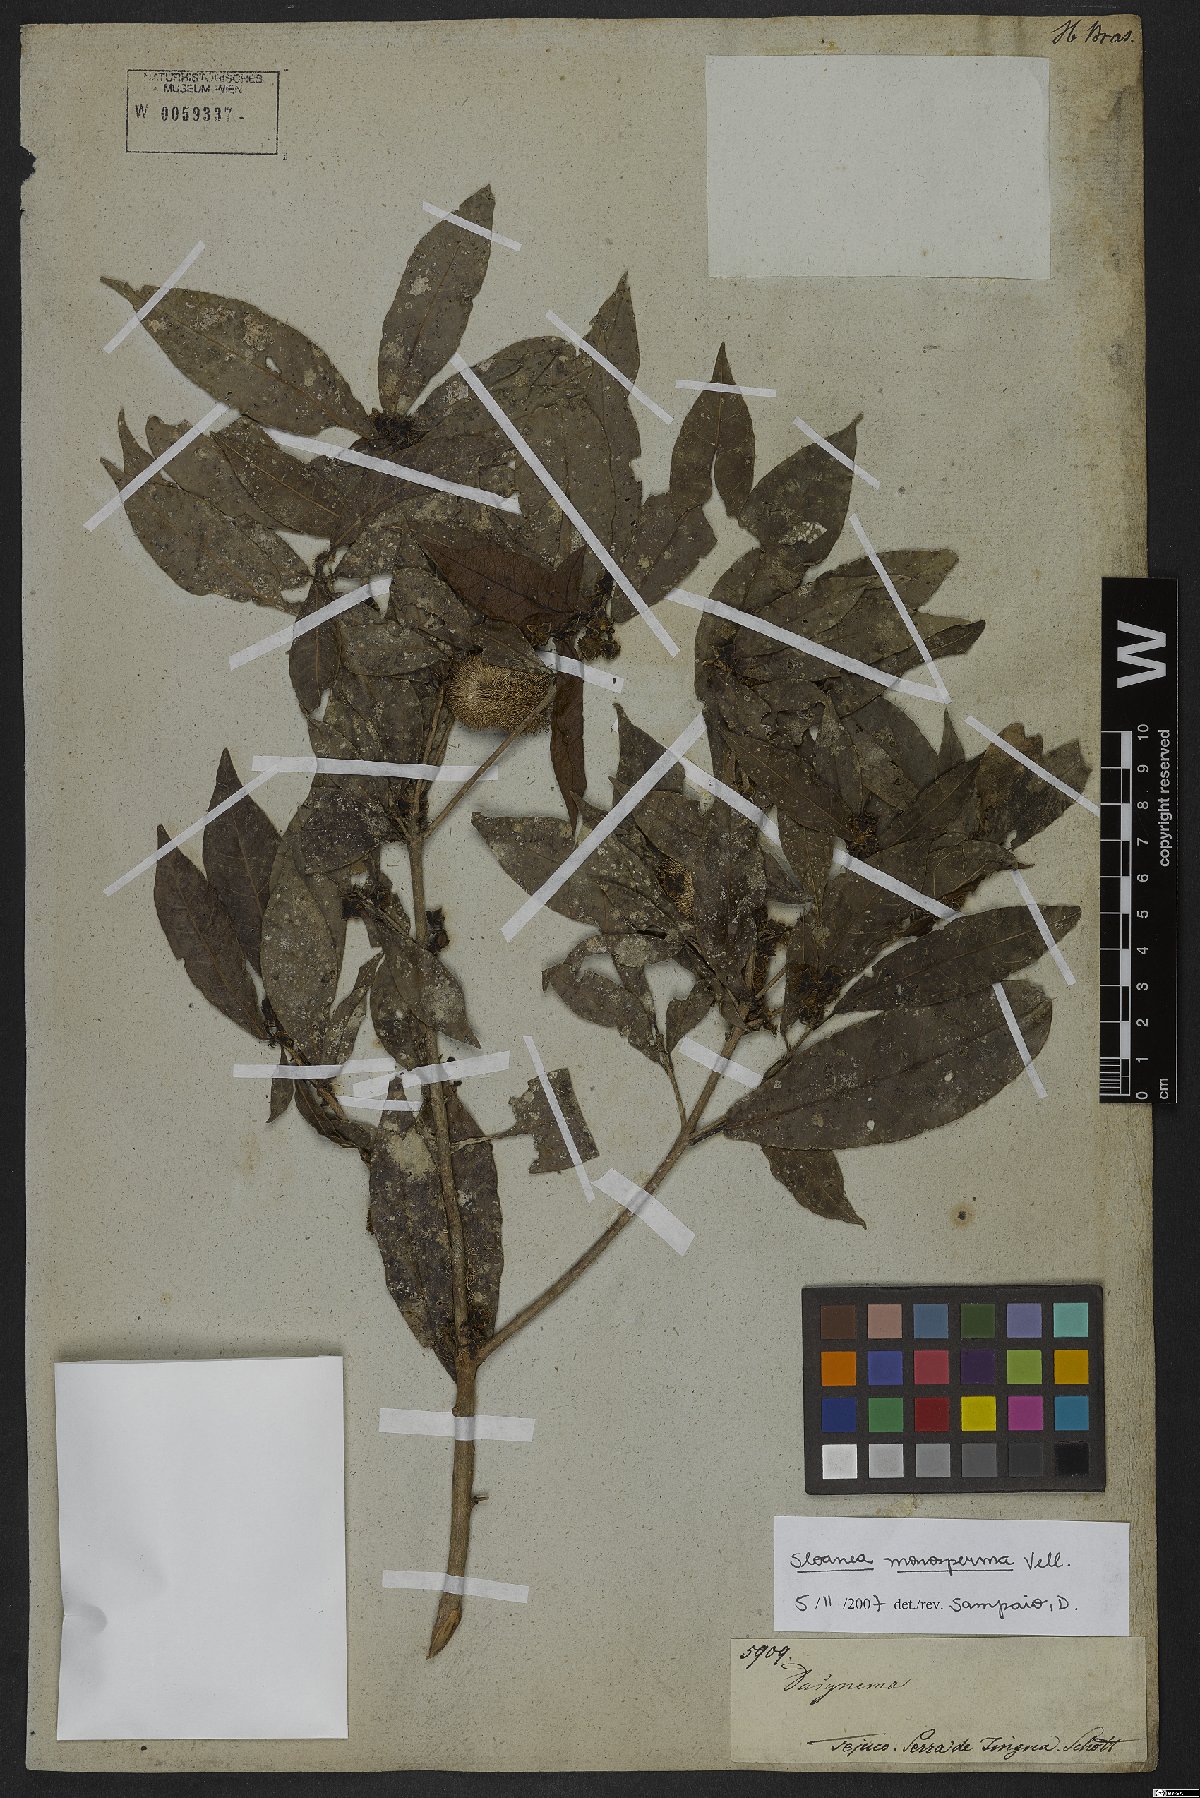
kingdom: Plantae
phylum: Tracheophyta
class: Magnoliopsida
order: Oxalidales
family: Elaeocarpaceae
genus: Sloanea
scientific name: Sloanea hirsuta
